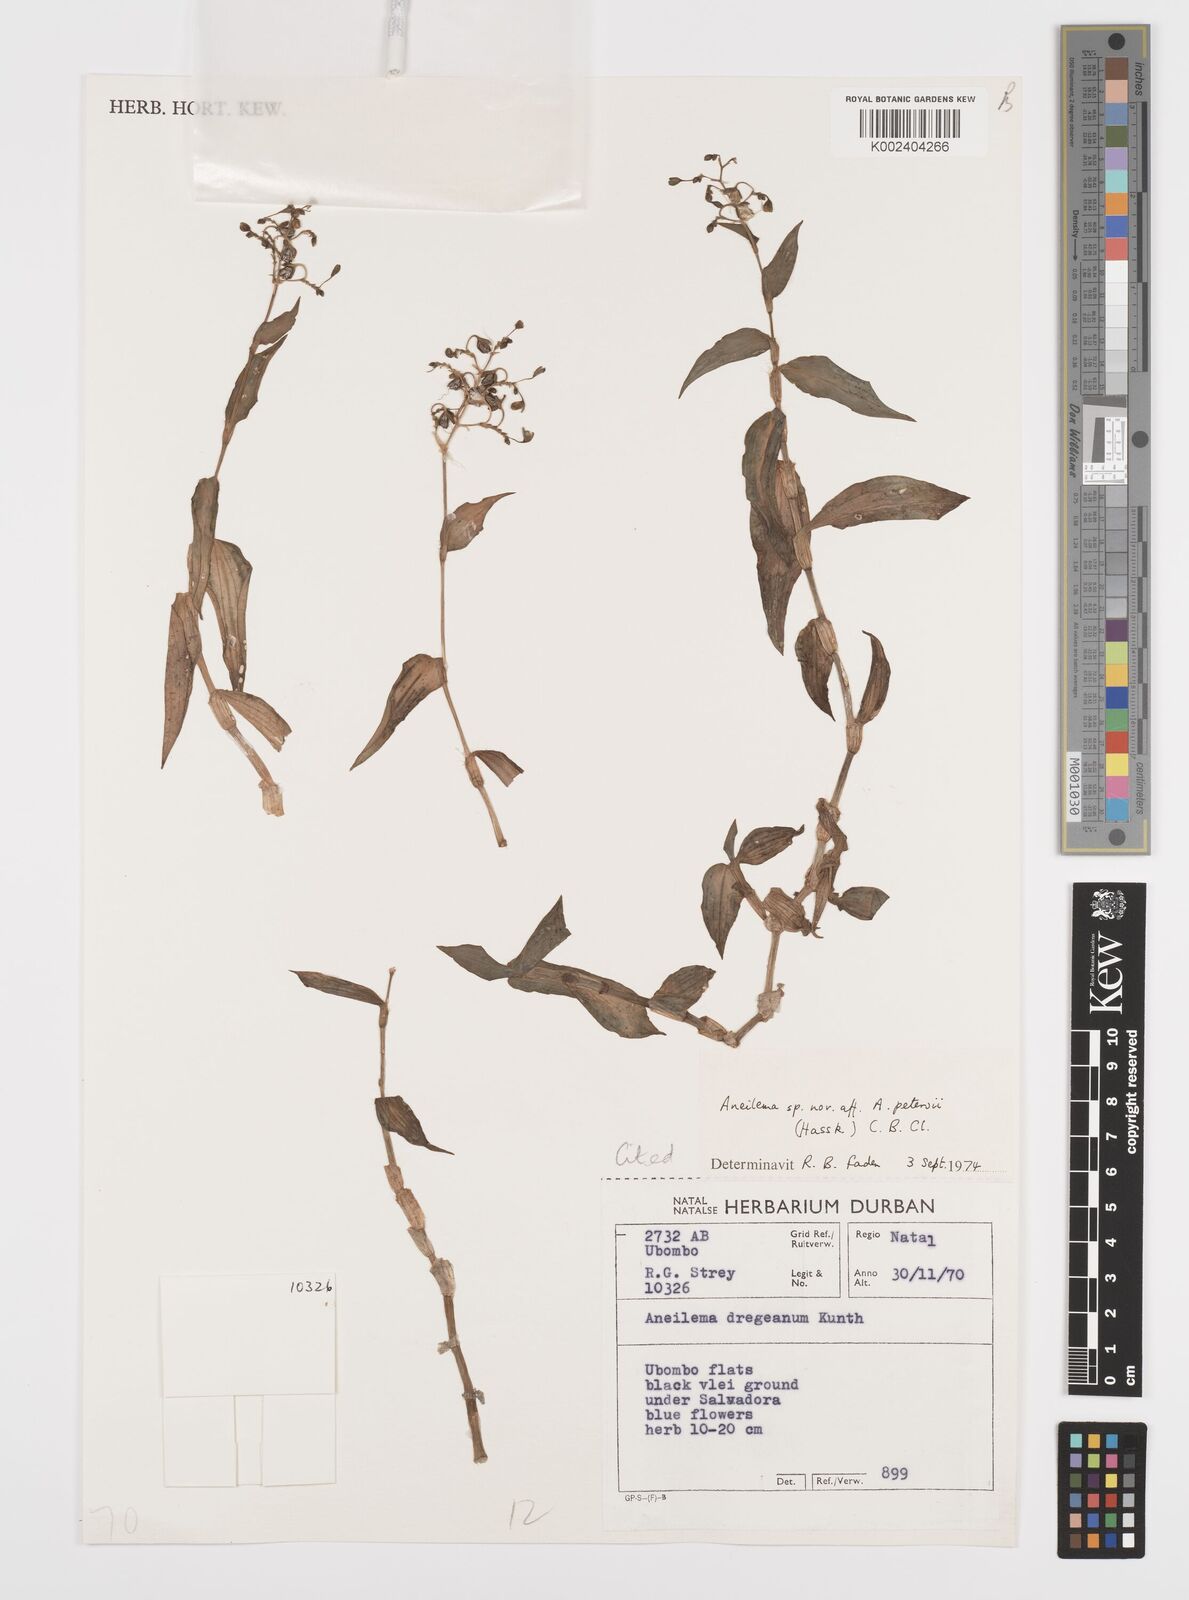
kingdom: Plantae
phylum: Tracheophyta
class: Liliopsida
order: Commelinales
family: Commelinaceae
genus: Aneilema
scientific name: Aneilema indehiscens
